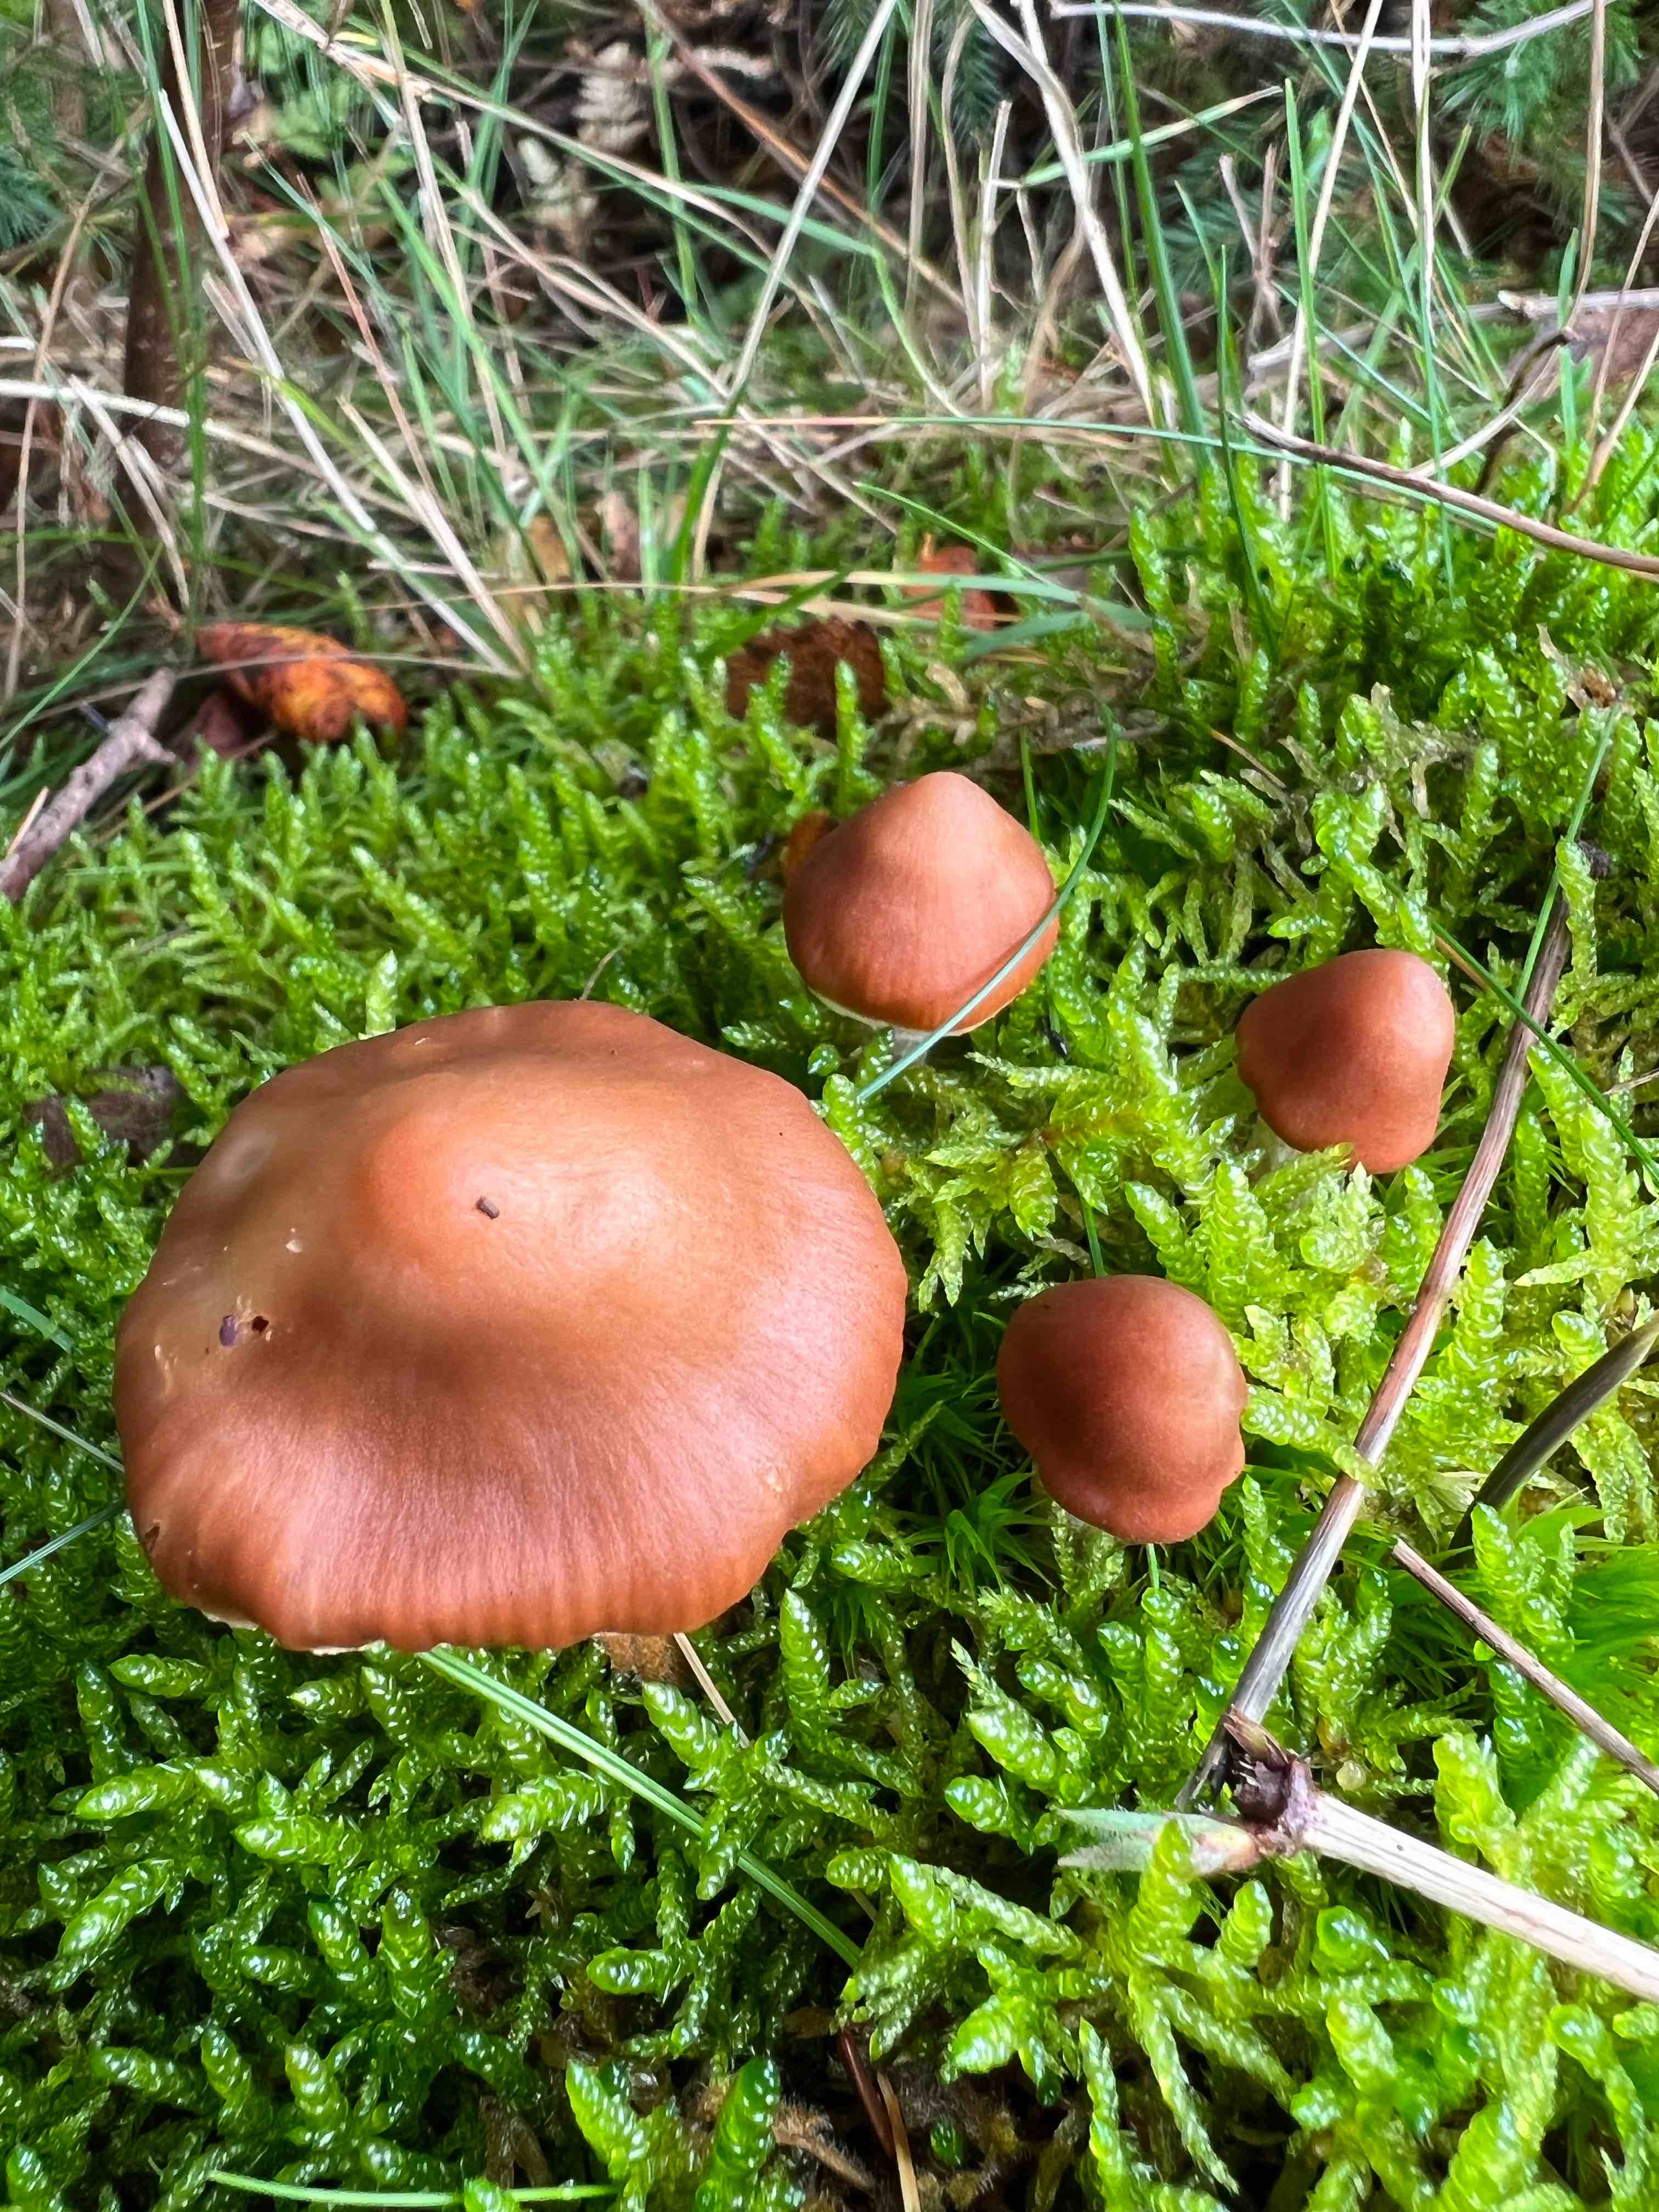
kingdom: Fungi
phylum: Basidiomycota
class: Agaricomycetes
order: Agaricales
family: Cortinariaceae
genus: Cortinarius
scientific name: Cortinarius
